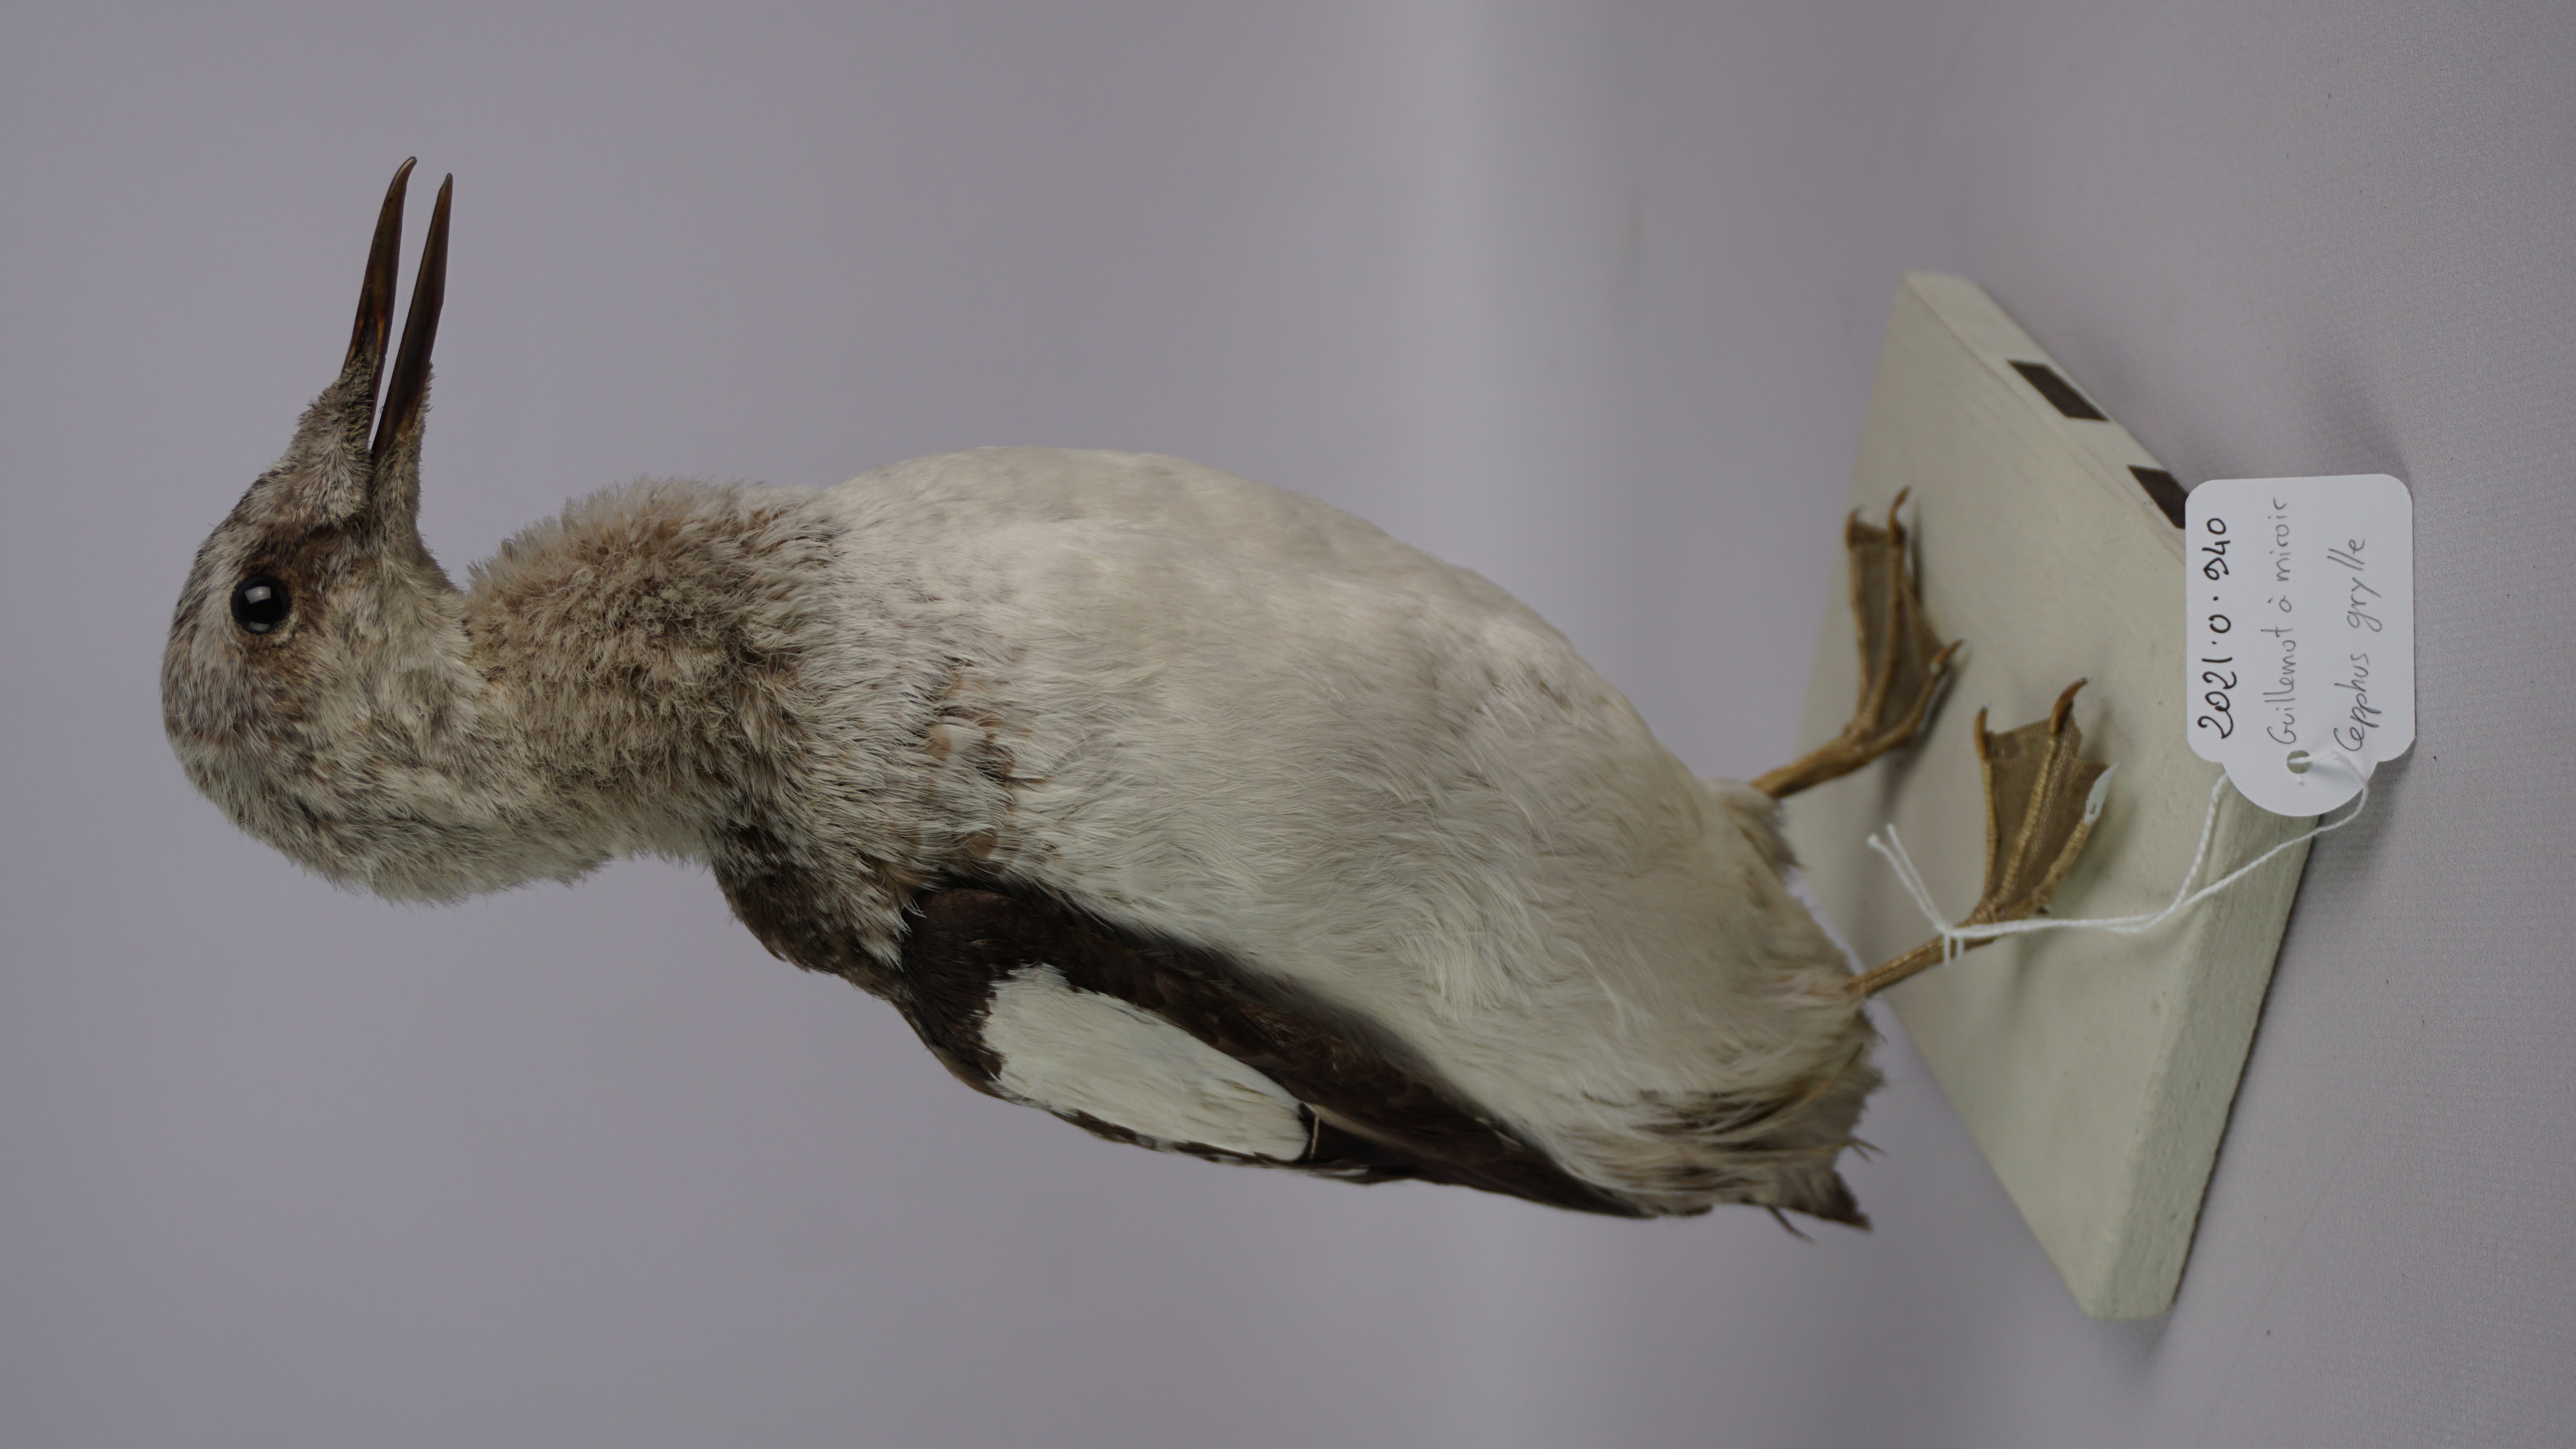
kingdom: Animalia
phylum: Chordata
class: Aves
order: Charadriiformes
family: Alcidae
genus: Cepphus
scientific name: Cepphus grylle
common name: Black guillemot
